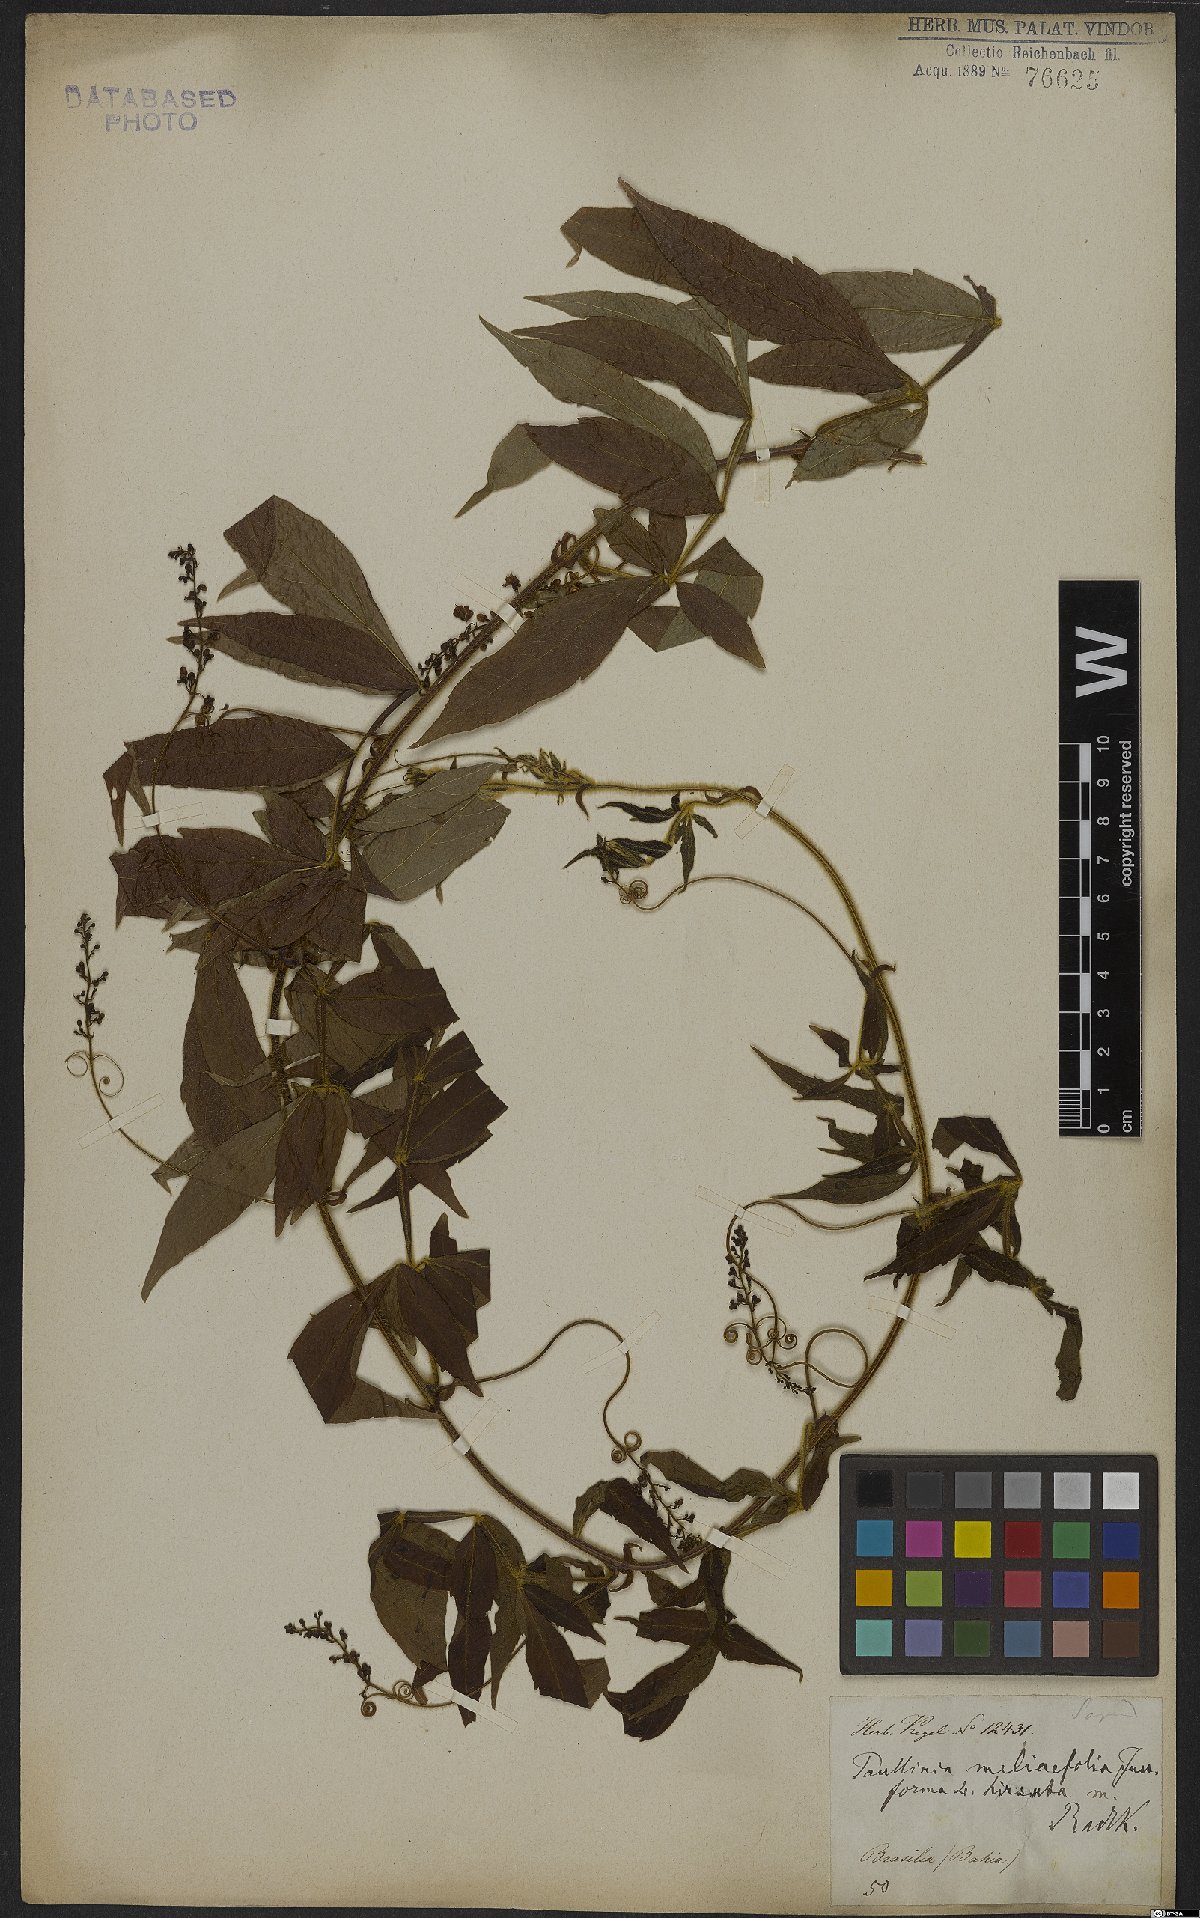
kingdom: Plantae
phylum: Tracheophyta
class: Magnoliopsida
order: Sapindales
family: Sapindaceae
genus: Paullinia
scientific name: Paullinia meliifolia
